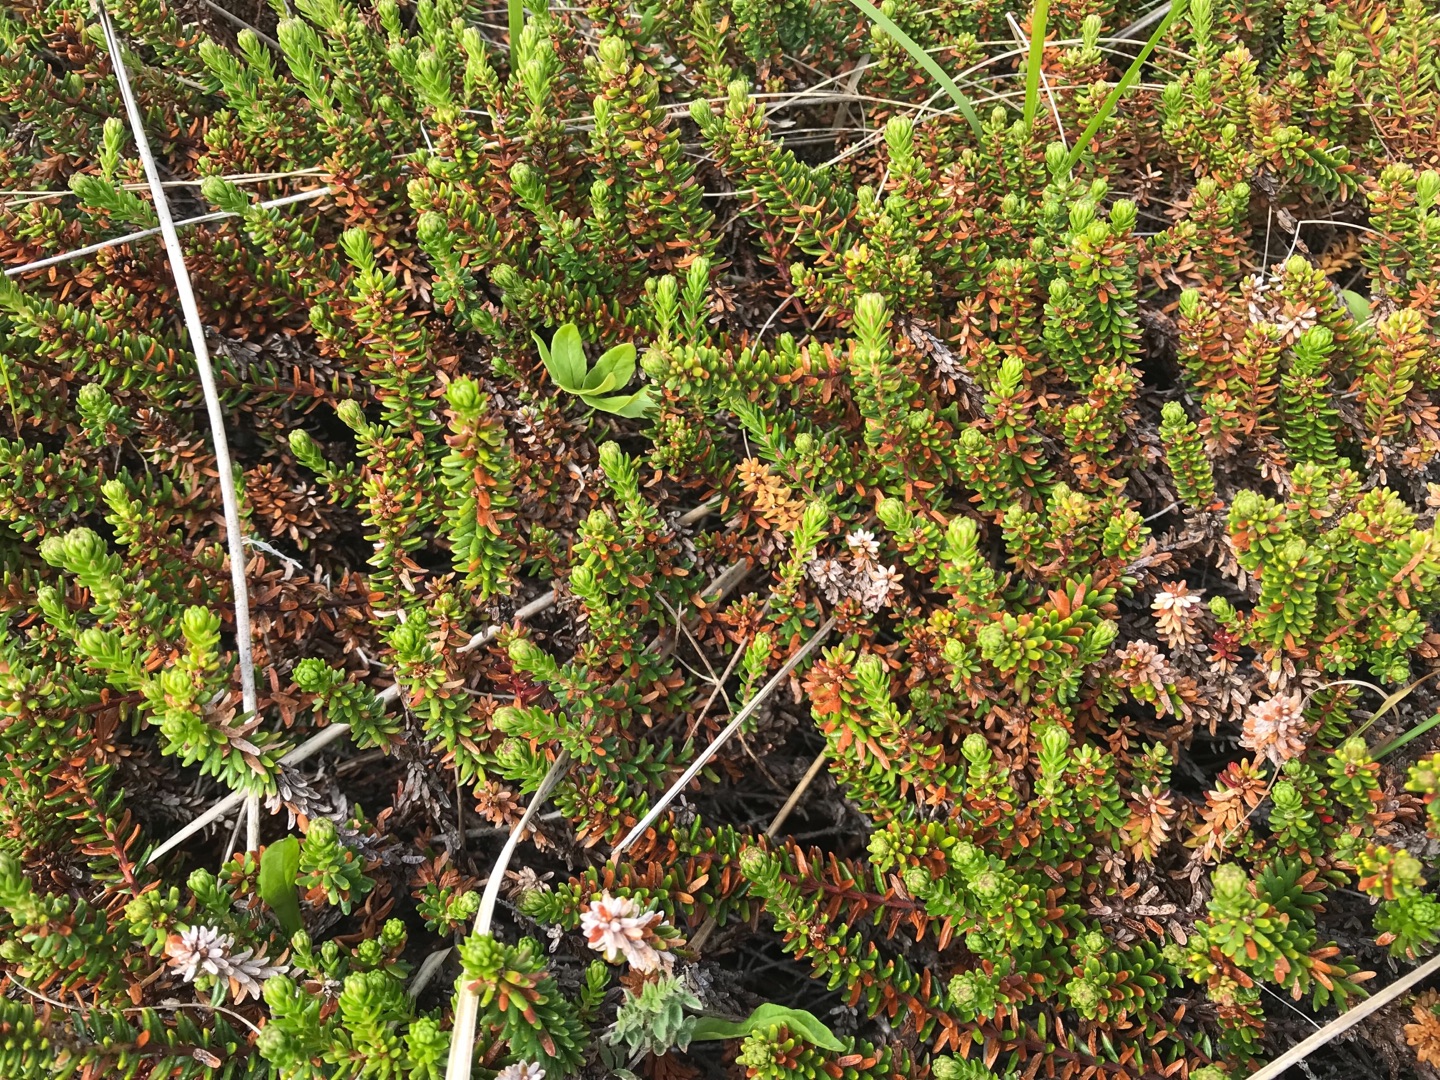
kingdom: Plantae
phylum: Tracheophyta
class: Magnoliopsida
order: Ericales
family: Ericaceae
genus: Empetrum
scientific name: Empetrum nigrum
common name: Revling
